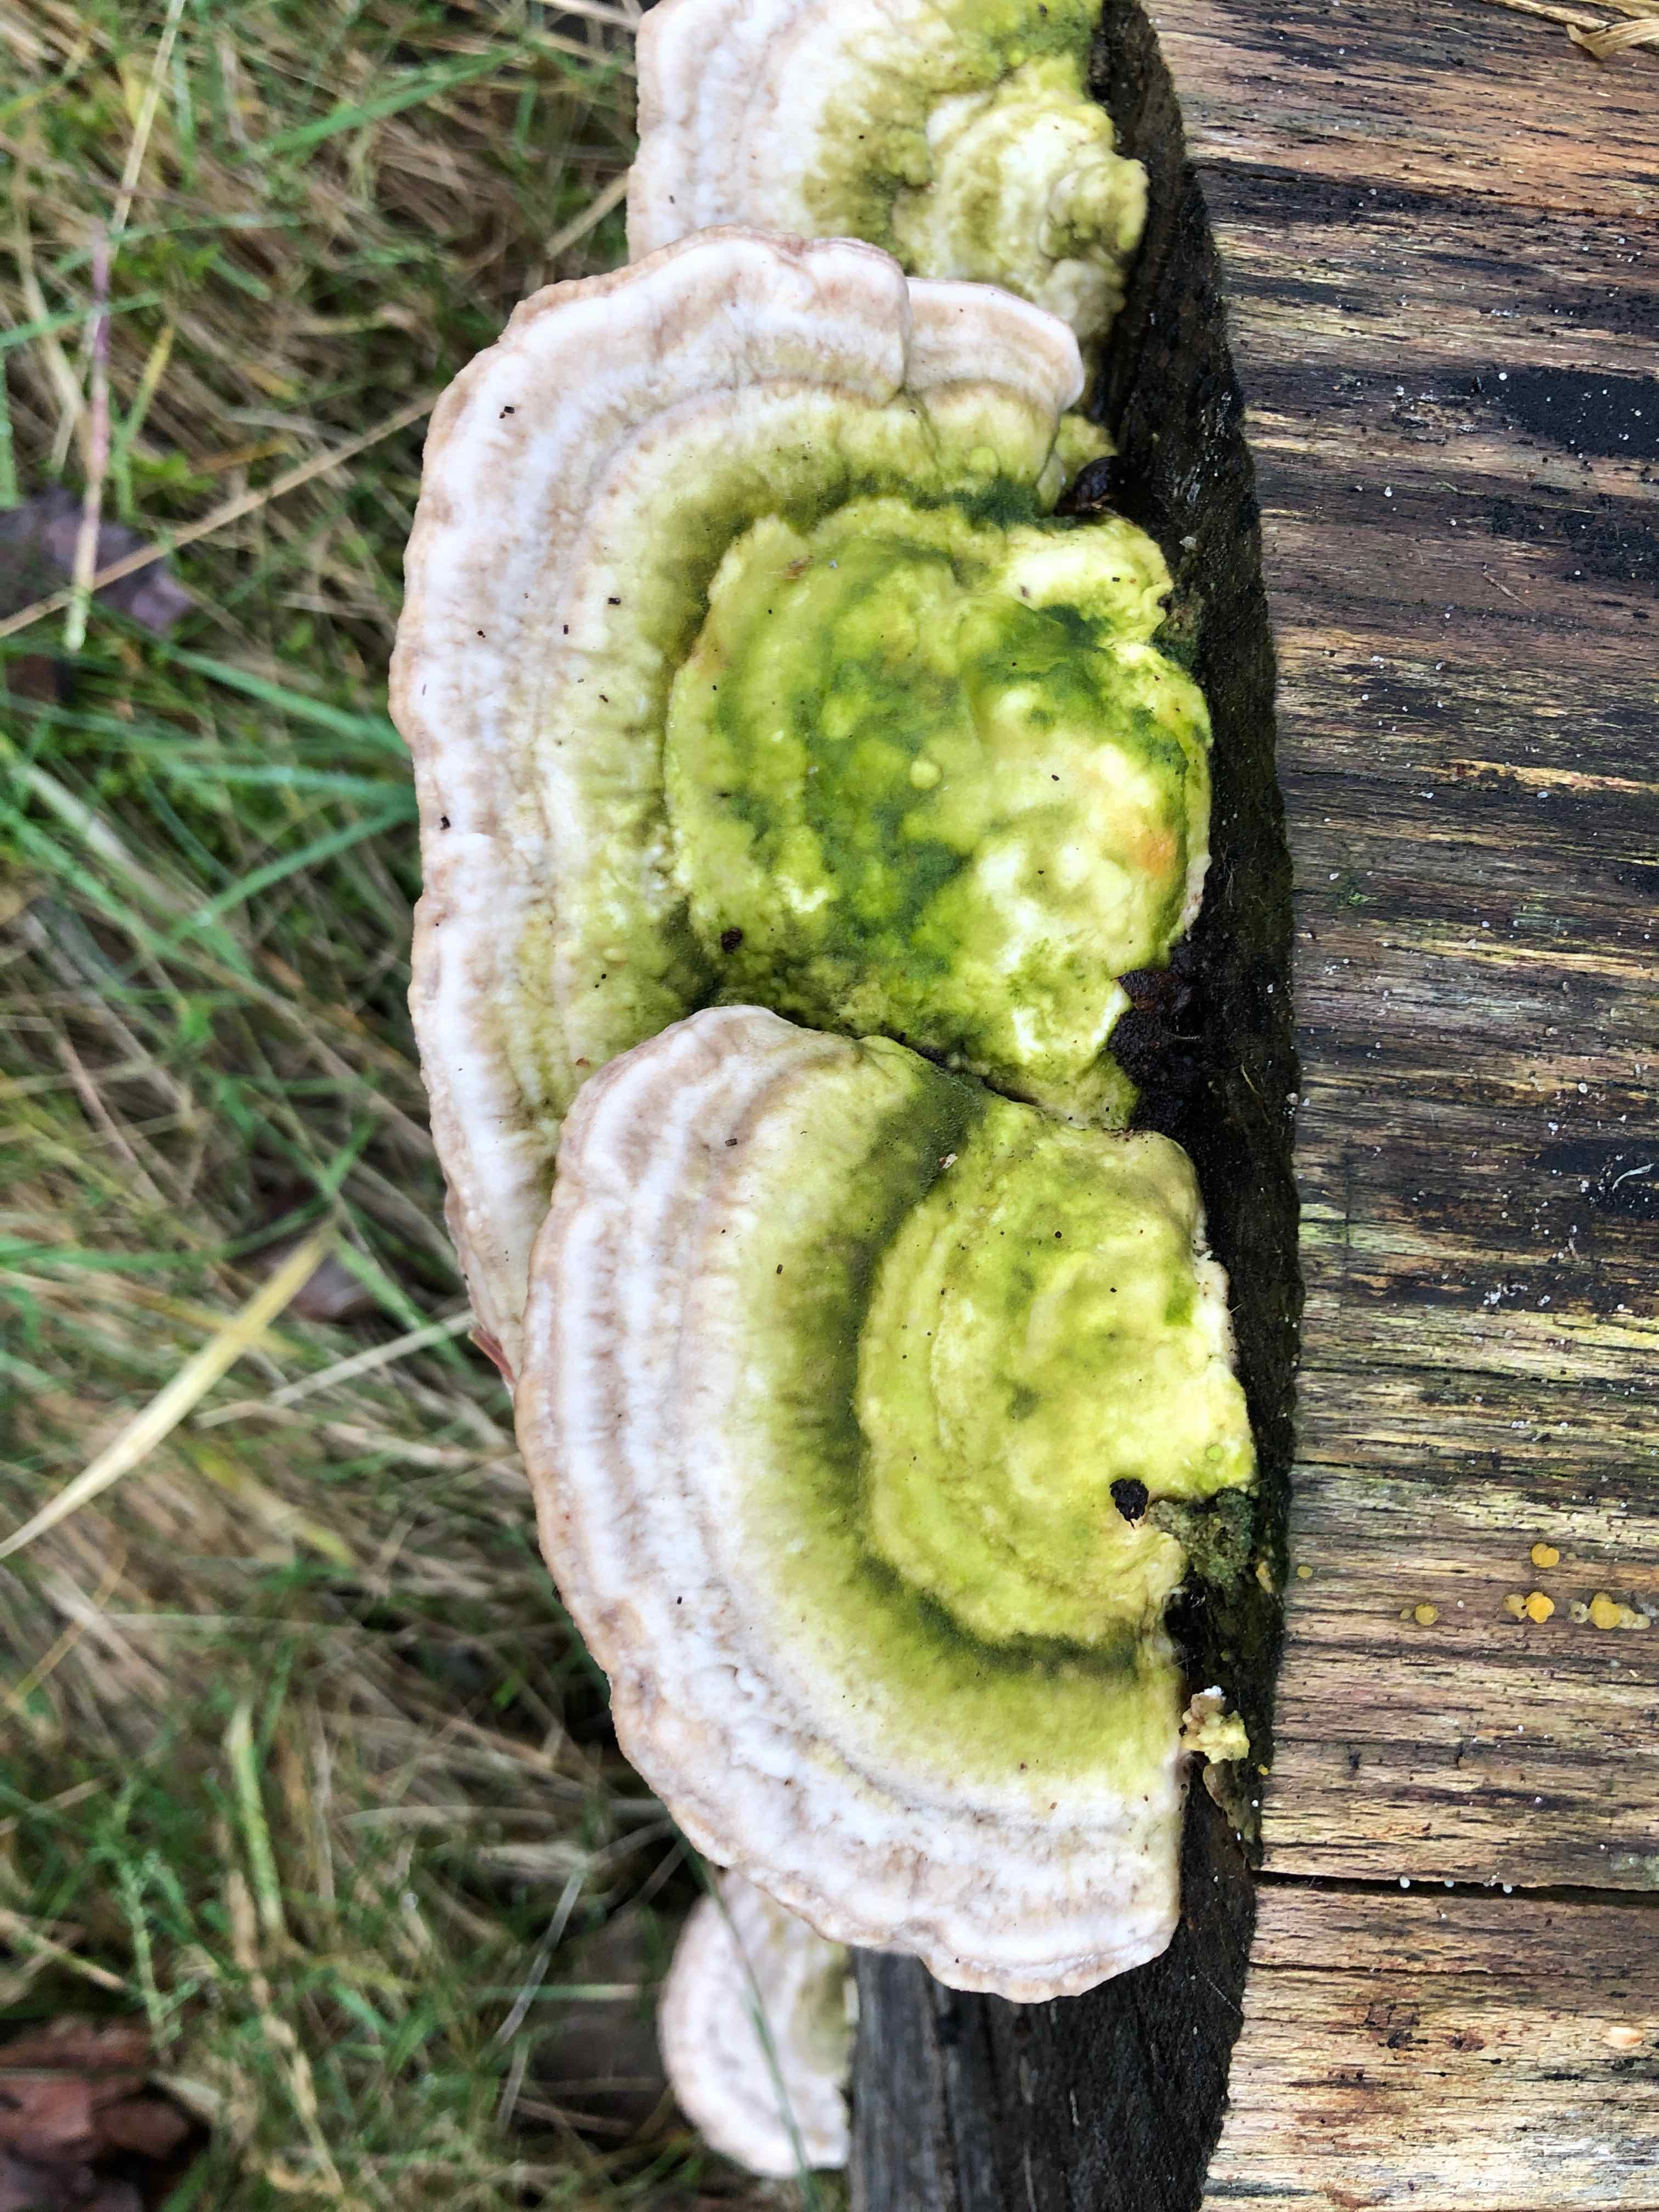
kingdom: Fungi
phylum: Basidiomycota
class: Agaricomycetes
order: Polyporales
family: Polyporaceae
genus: Trametes
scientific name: Trametes hirsuta
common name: håret læderporesvamp
